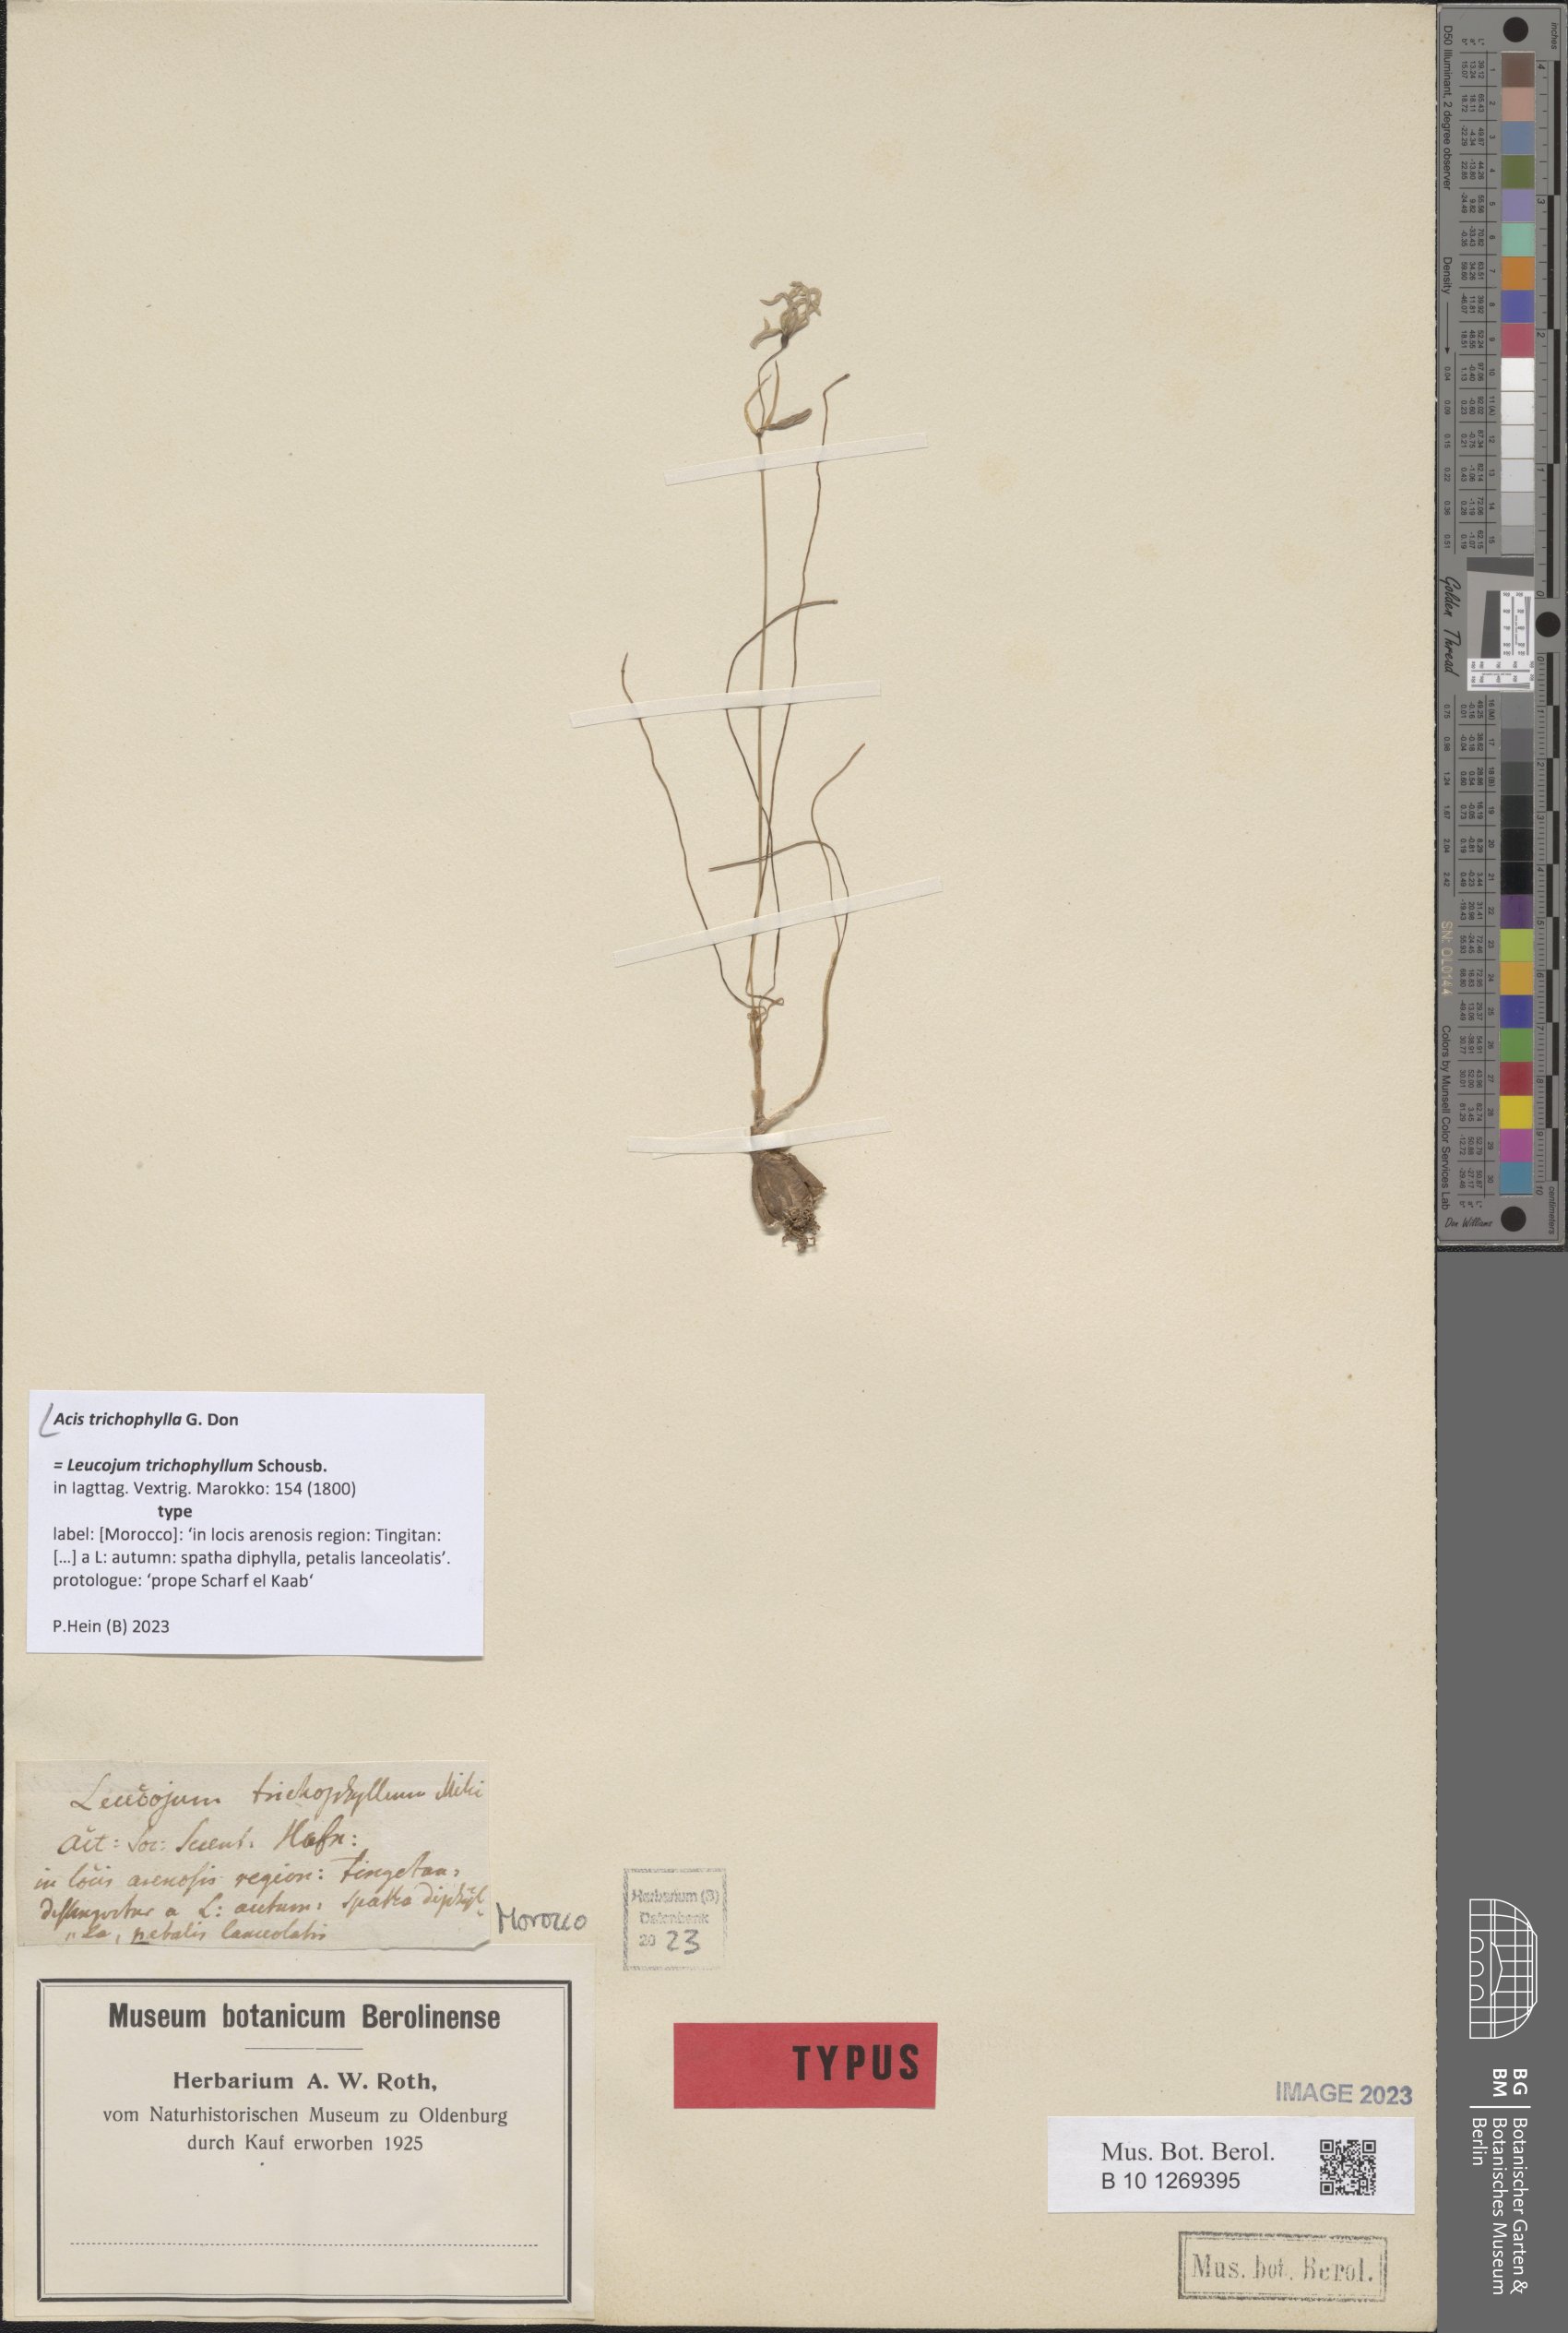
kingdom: Plantae
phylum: Tracheophyta
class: Liliopsida
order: Asparagales
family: Amaryllidaceae
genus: Acis
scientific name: Acis trichophylla
